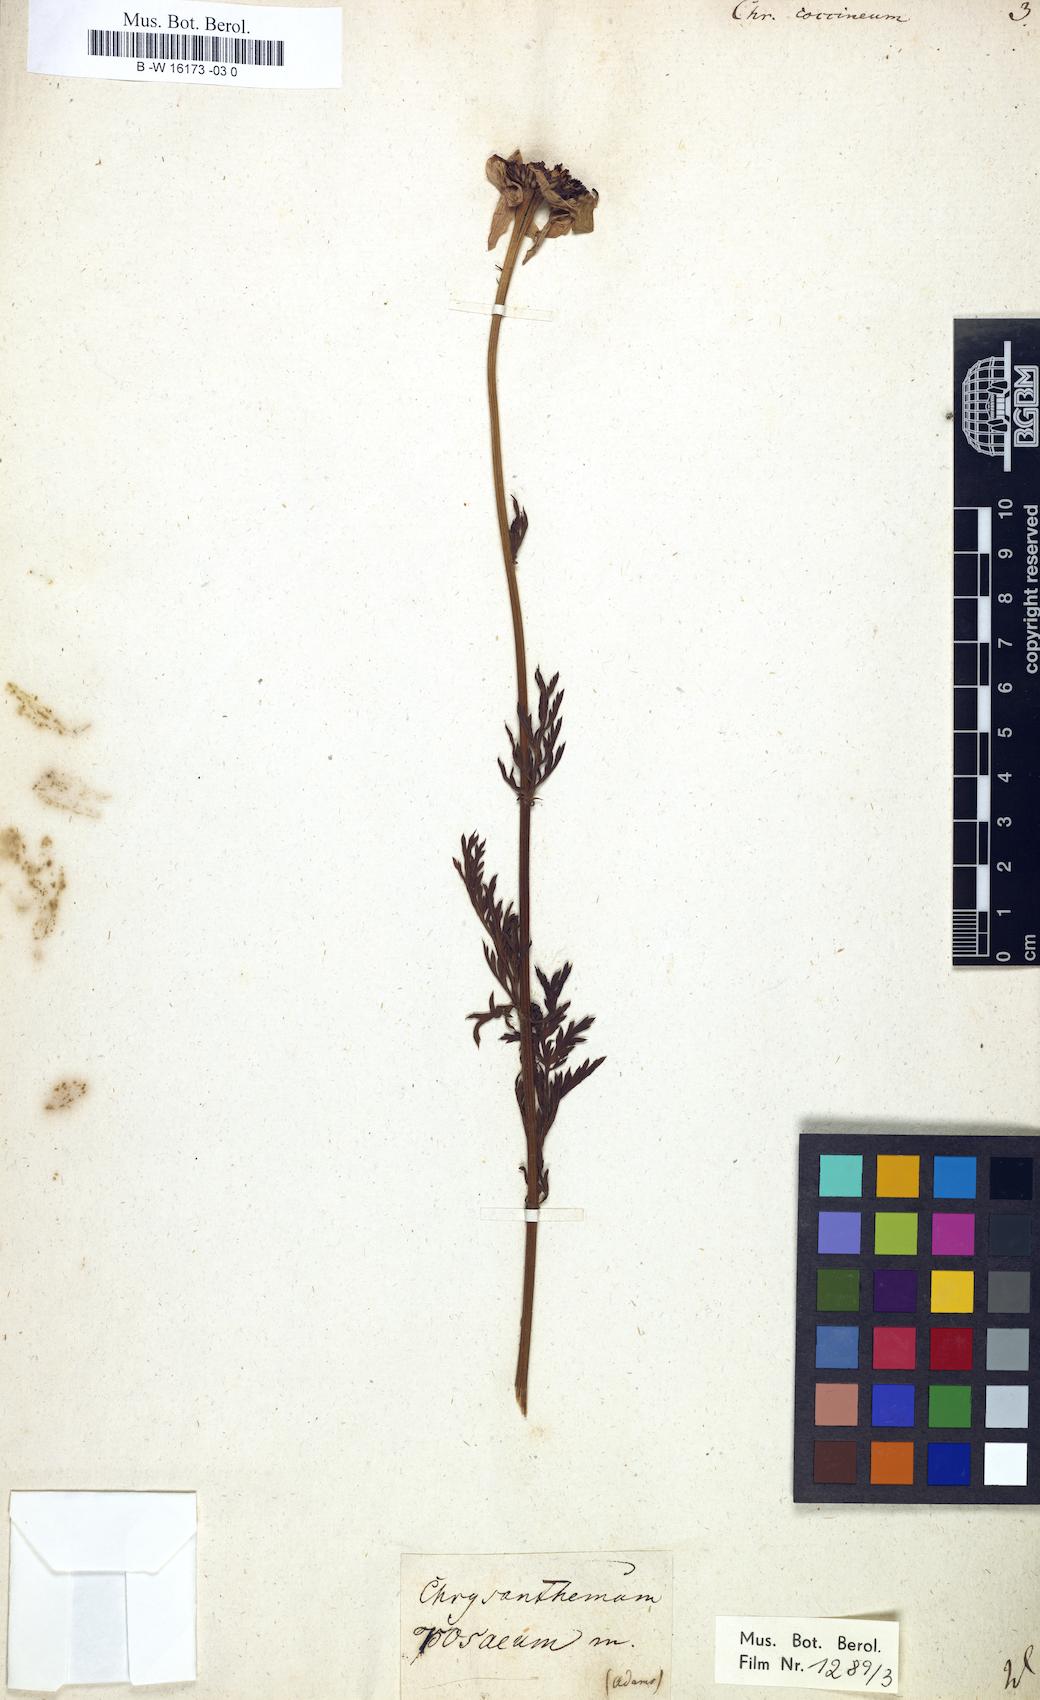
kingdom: Plantae
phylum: Tracheophyta
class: Magnoliopsida
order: Asterales
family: Asteraceae
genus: Chrysanthemum
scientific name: Chrysanthemum coccineum
